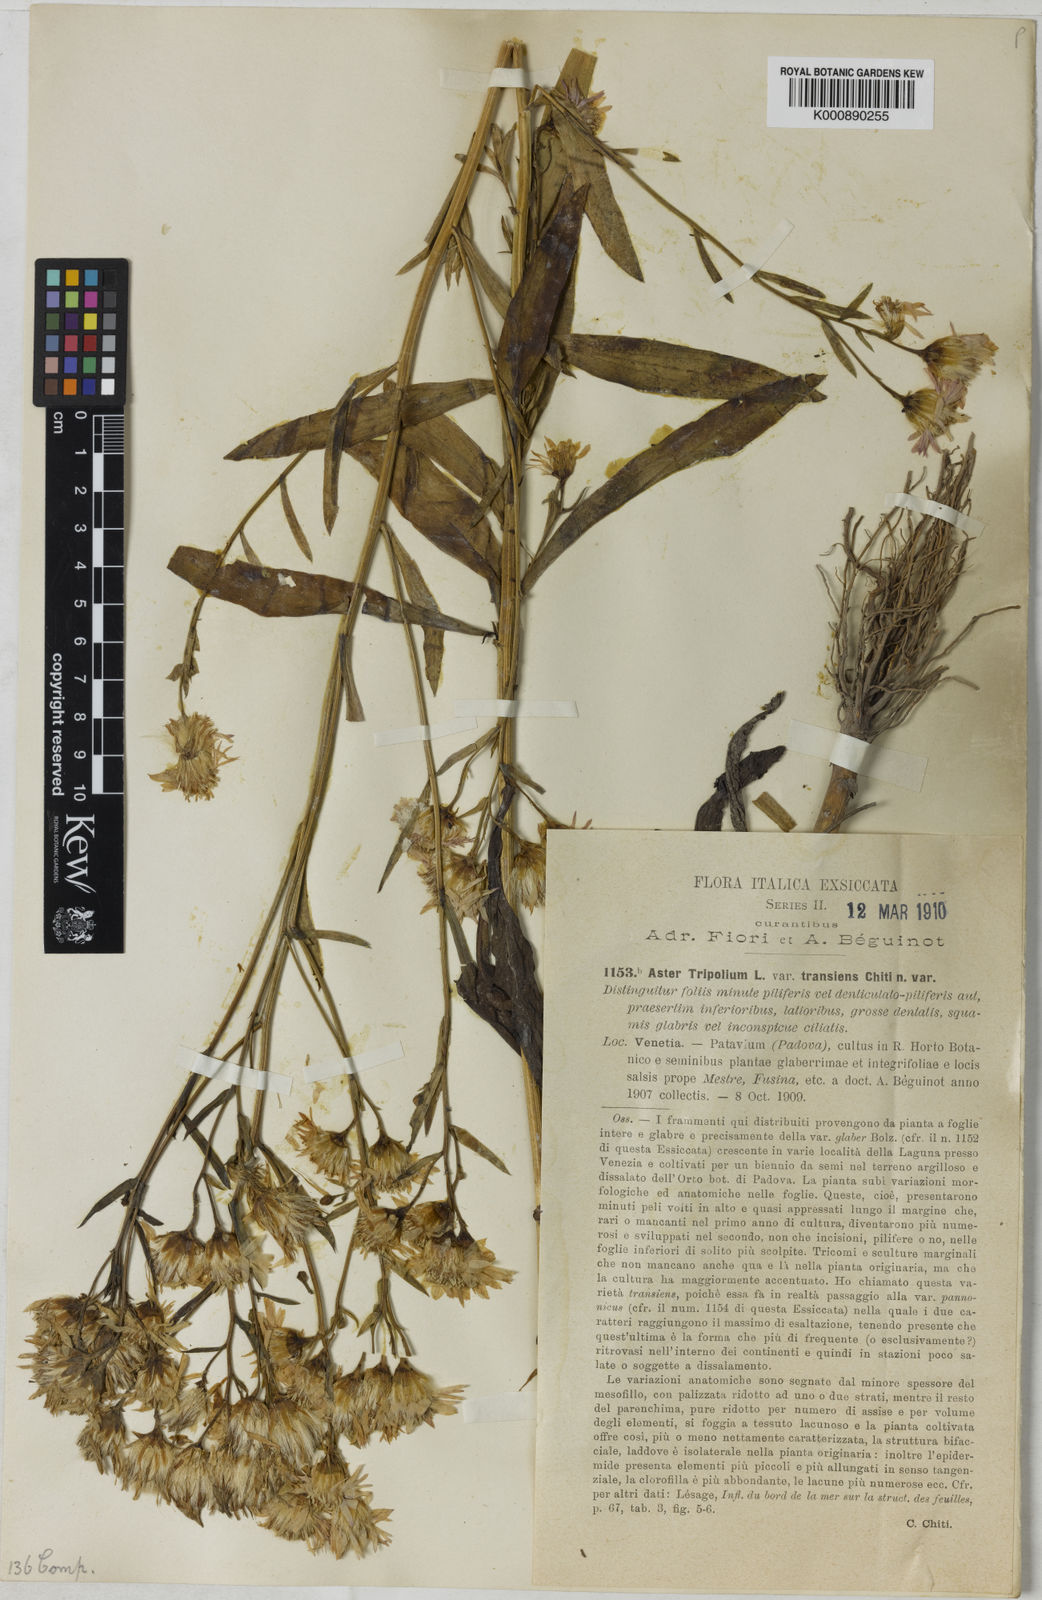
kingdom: Plantae
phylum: Tracheophyta
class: Magnoliopsida
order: Asterales
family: Asteraceae
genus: Aster
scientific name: Aster
